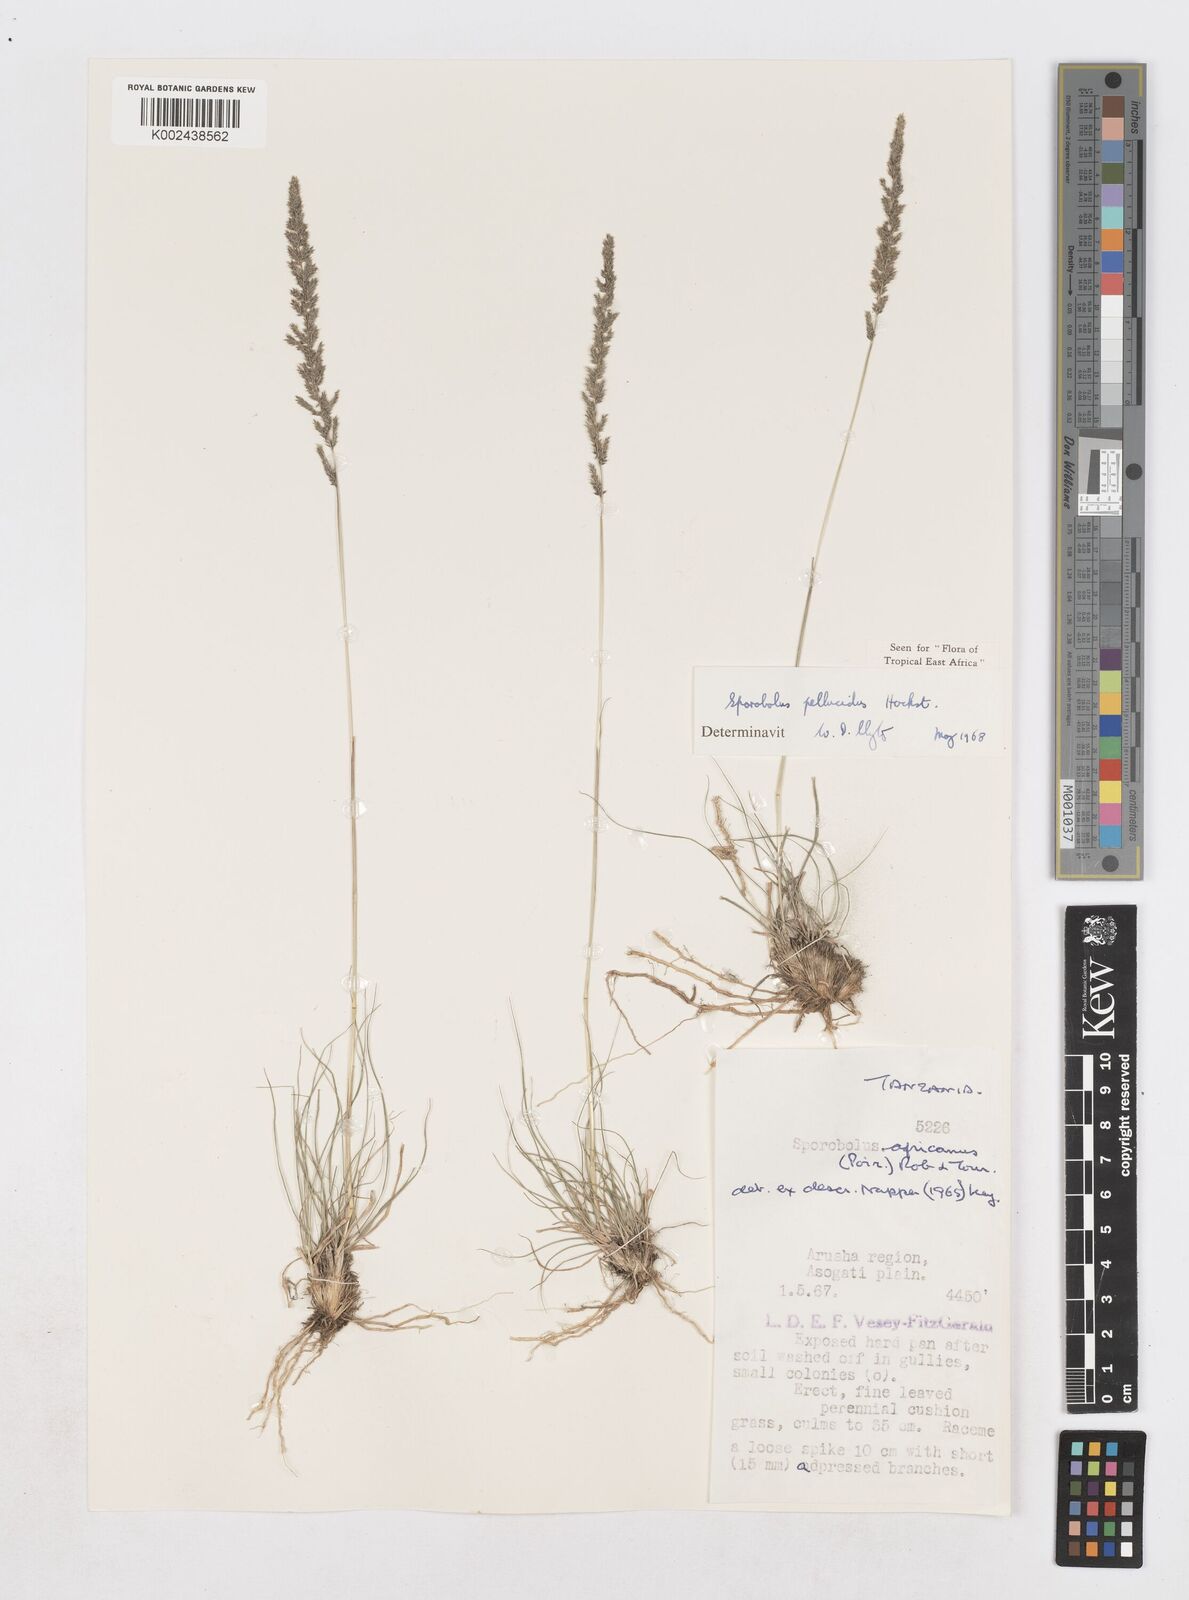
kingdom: Plantae
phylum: Tracheophyta
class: Liliopsida
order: Poales
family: Poaceae
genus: Sporobolus
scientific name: Sporobolus pellucidus
